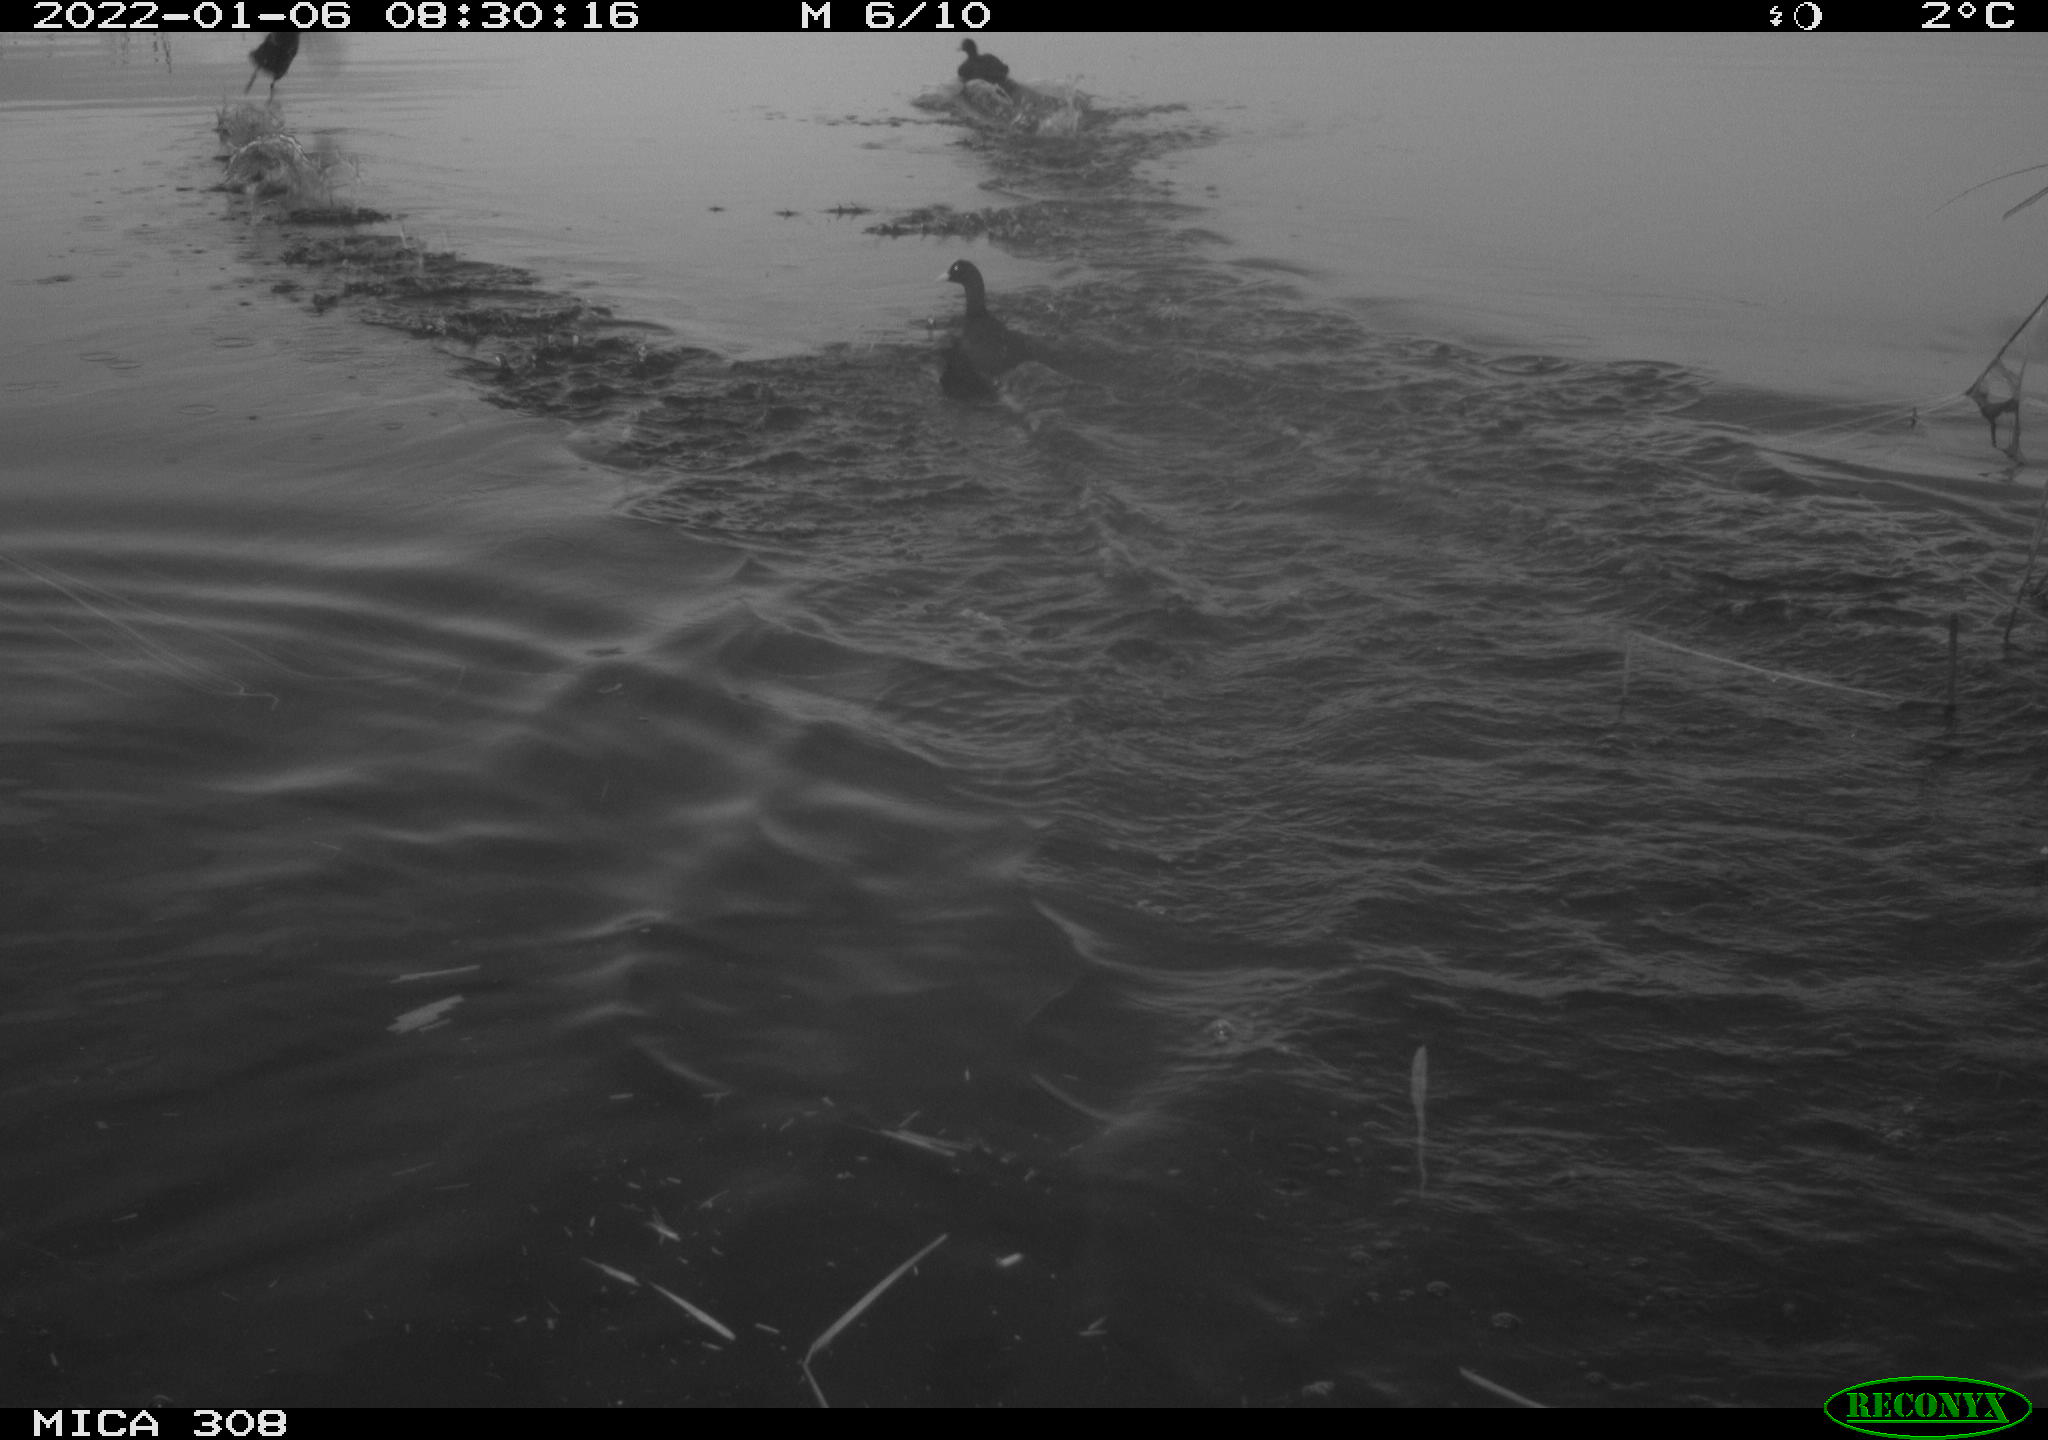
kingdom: Animalia
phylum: Chordata
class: Aves
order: Gruiformes
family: Rallidae
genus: Gallinula
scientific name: Gallinula chloropus
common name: Common moorhen
